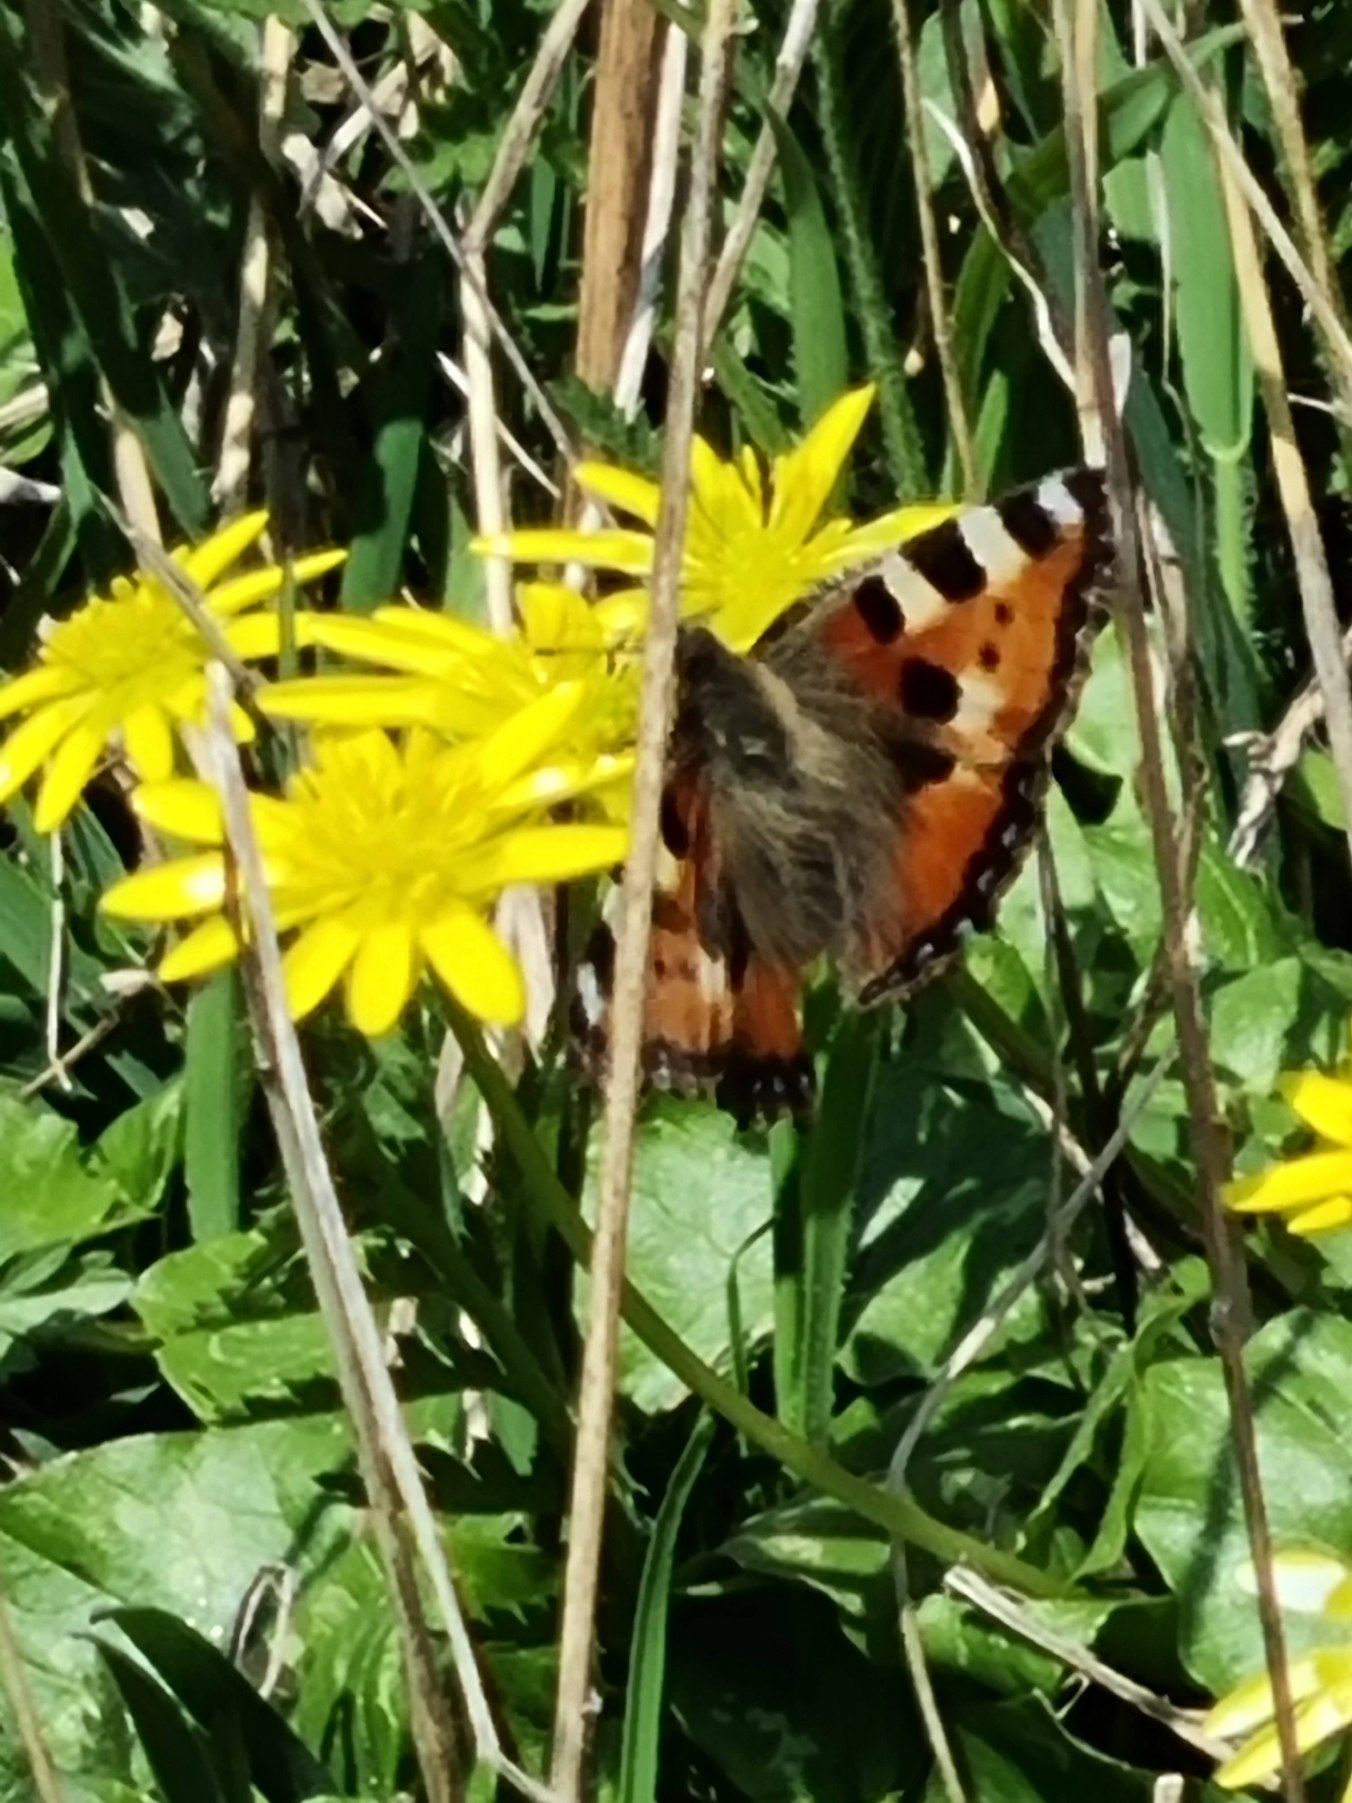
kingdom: Animalia
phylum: Arthropoda
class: Insecta
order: Lepidoptera
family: Nymphalidae
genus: Aglais
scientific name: Aglais urticae
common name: Nældens takvinge
